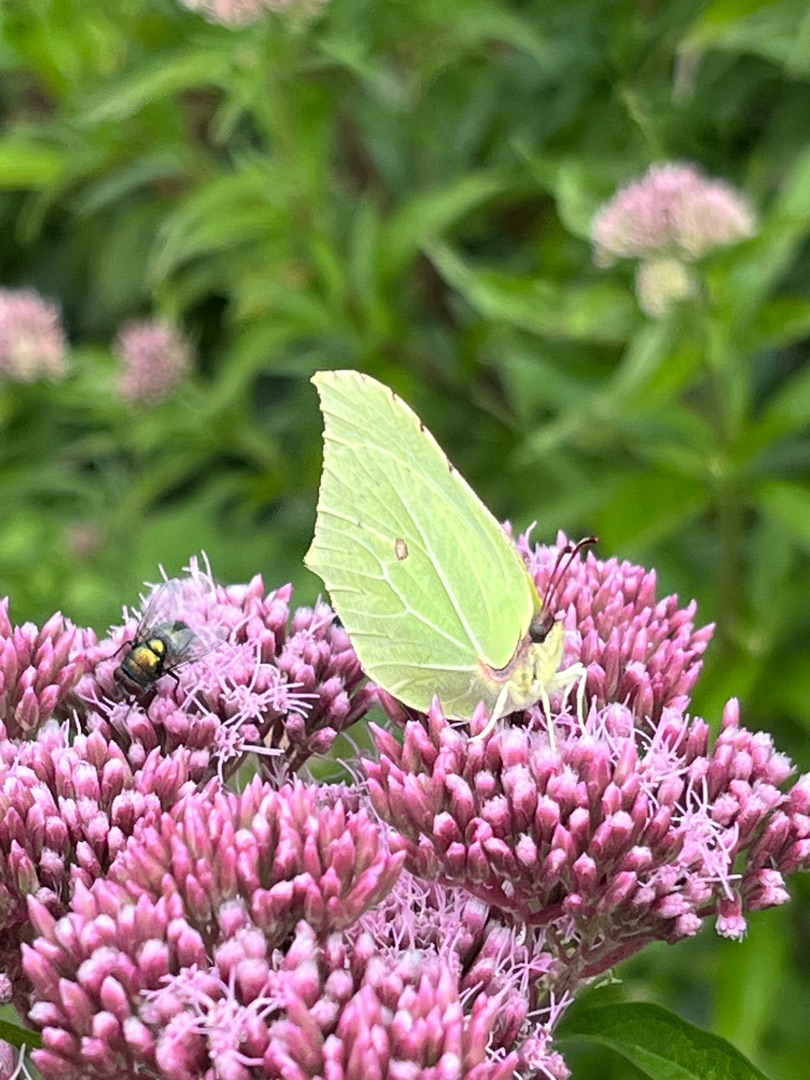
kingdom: Animalia
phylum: Arthropoda
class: Insecta
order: Lepidoptera
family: Pieridae
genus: Gonepteryx
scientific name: Gonepteryx rhamni
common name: Citronsommerfugl
